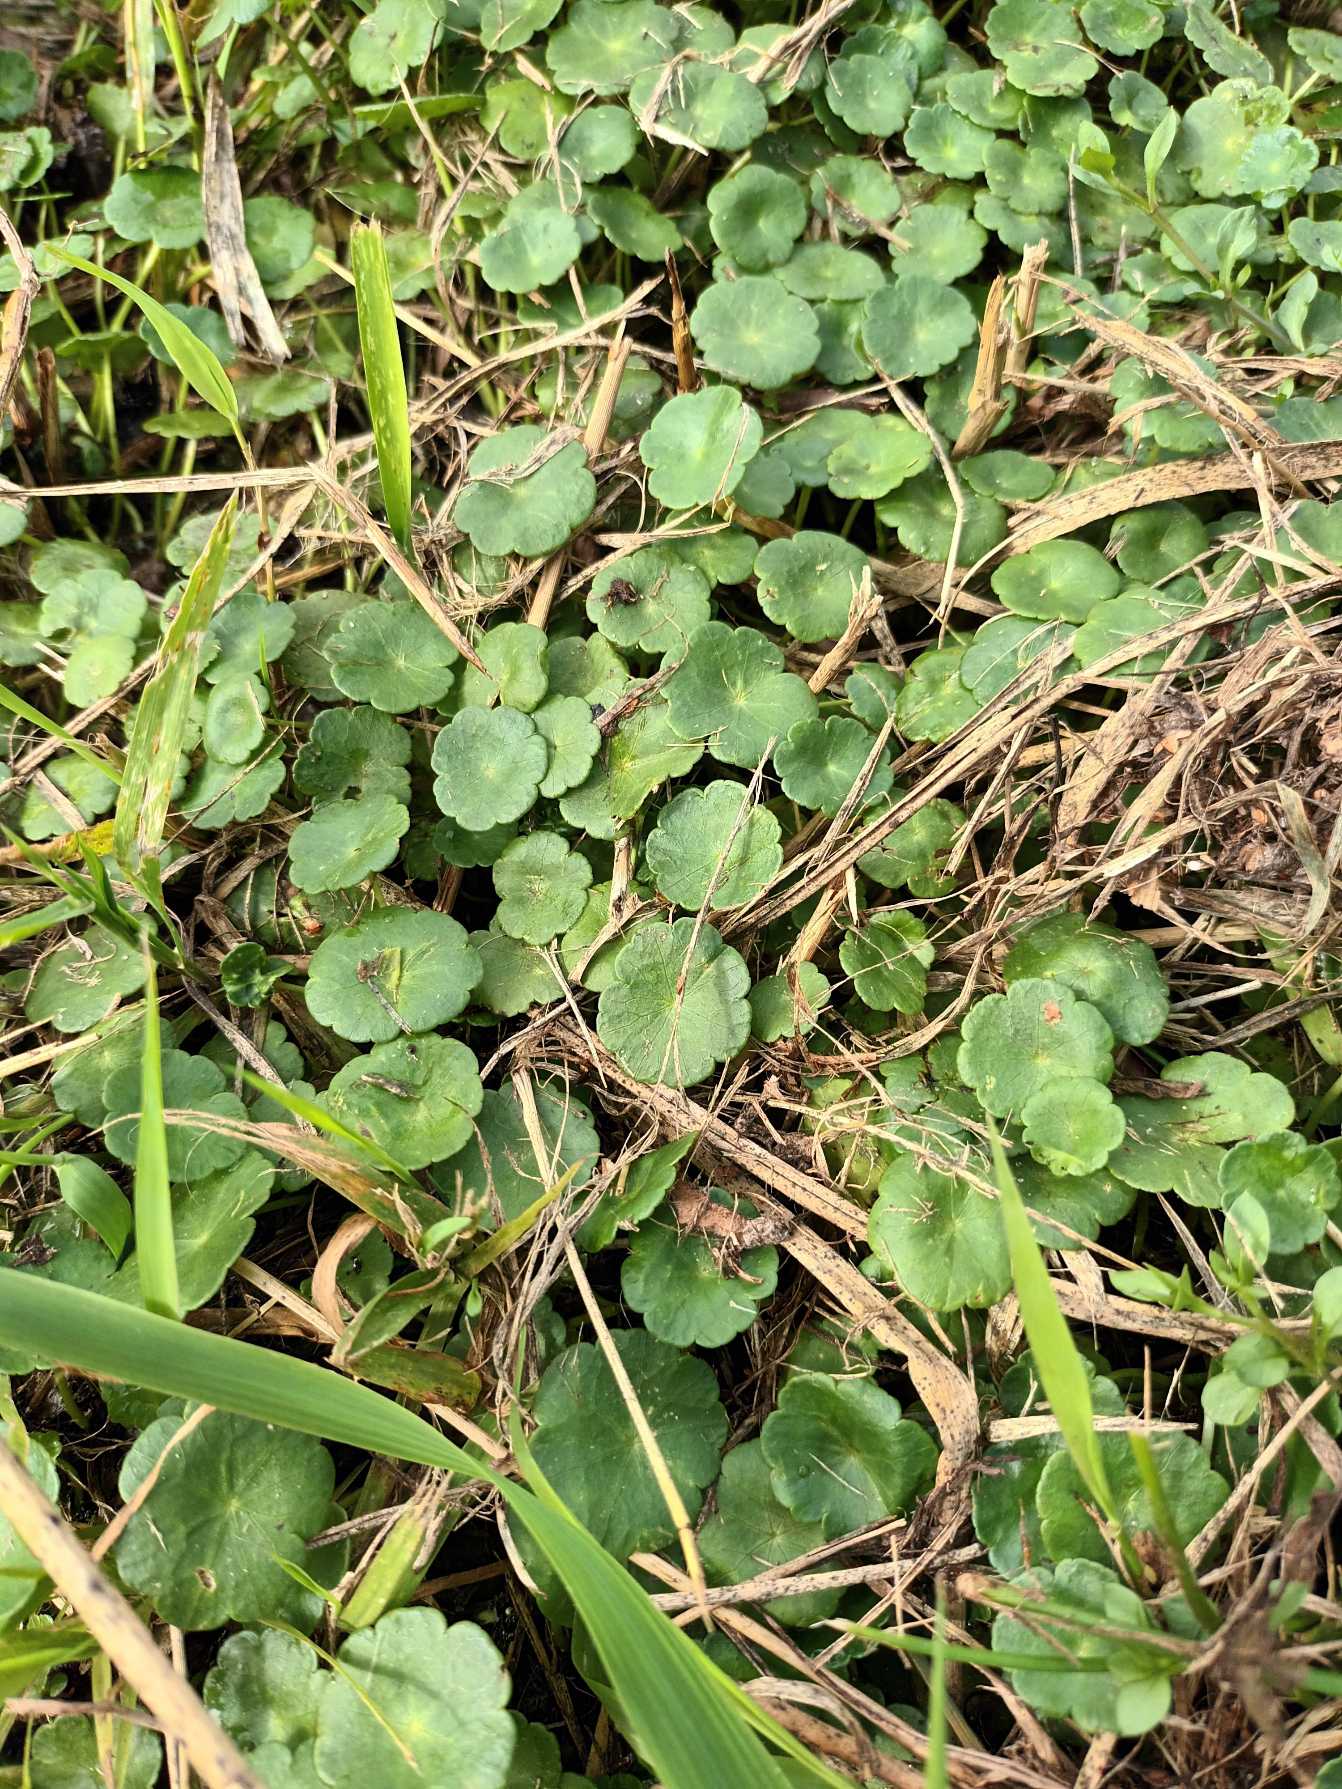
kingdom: Plantae
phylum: Tracheophyta
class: Magnoliopsida
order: Apiales
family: Araliaceae
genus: Hydrocotyle
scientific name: Hydrocotyle vulgaris
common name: Vandnavle
